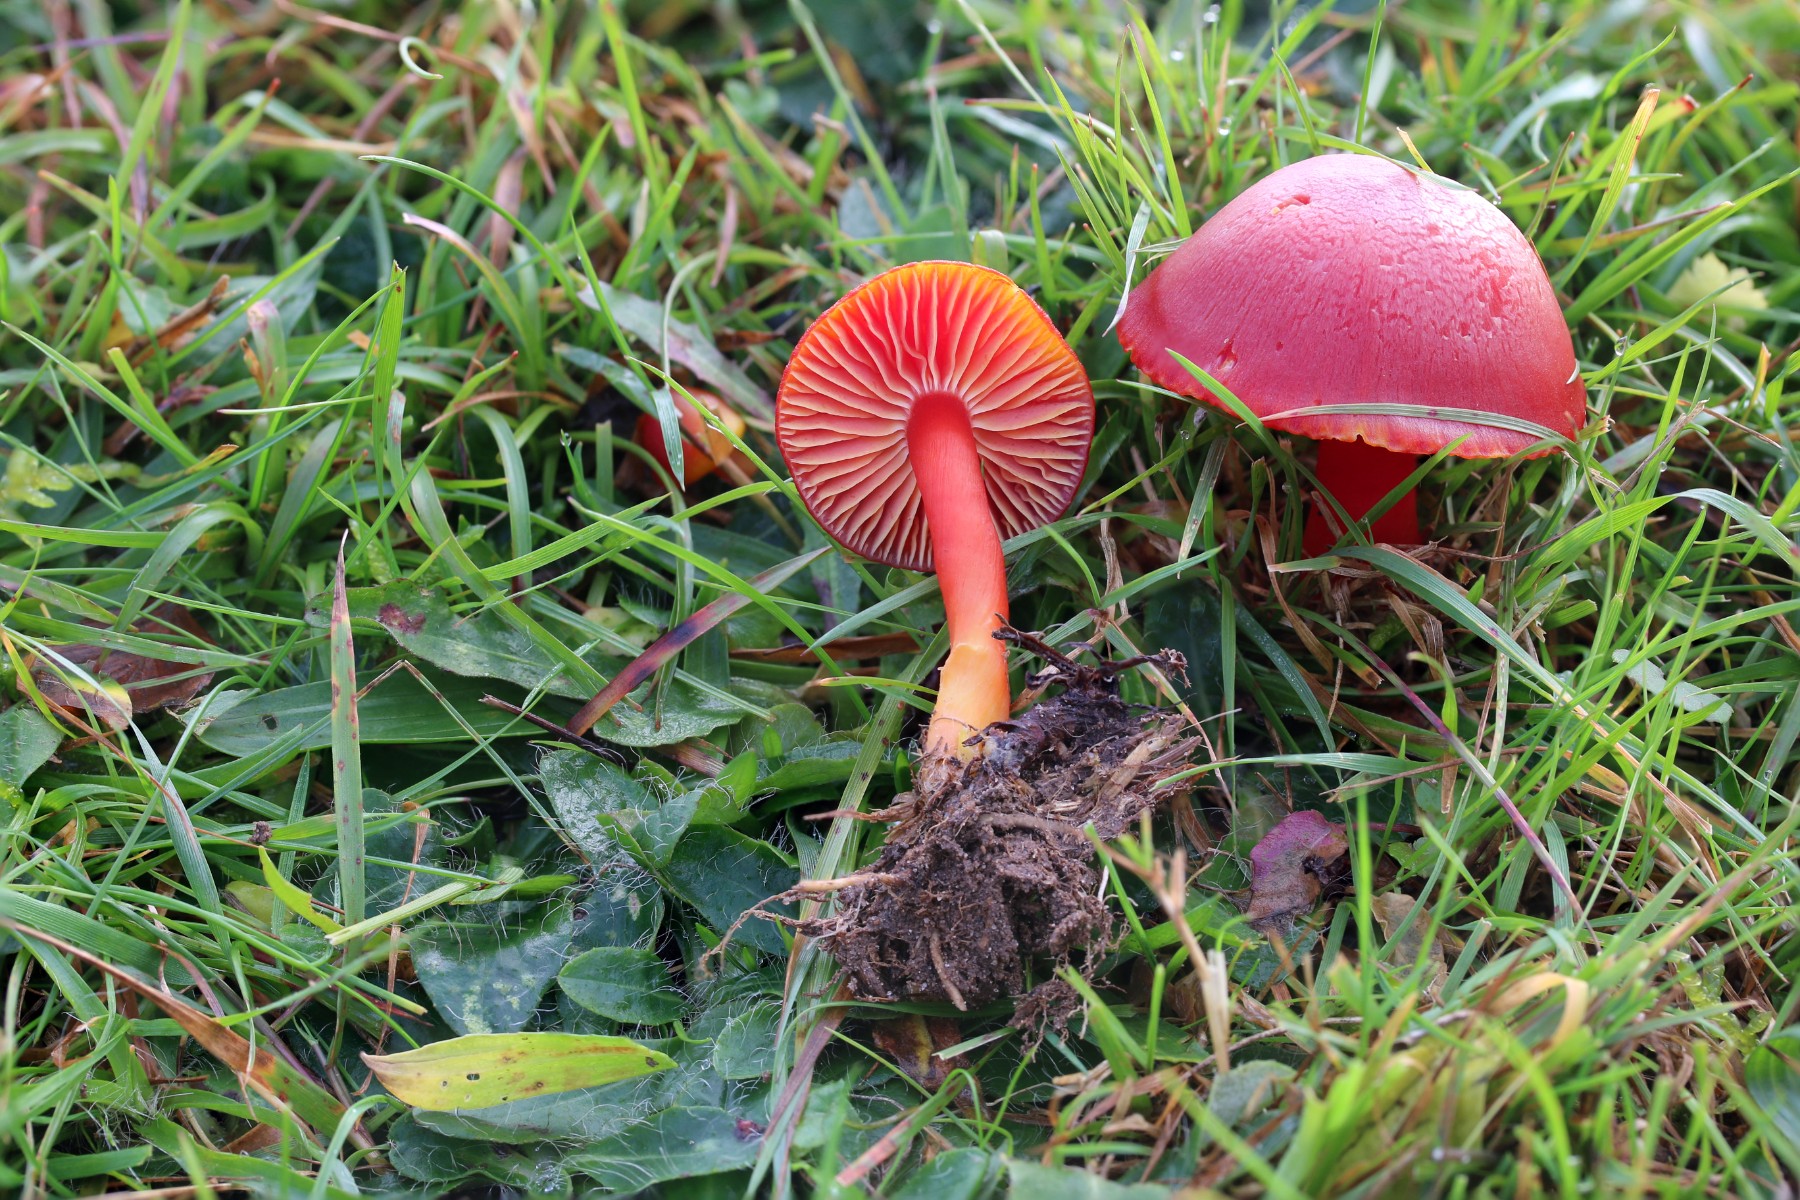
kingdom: Fungi
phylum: Basidiomycota
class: Agaricomycetes
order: Agaricales
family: Hygrophoraceae
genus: Hygrocybe
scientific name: Hygrocybe coccinea
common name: cinnober-vokshat
